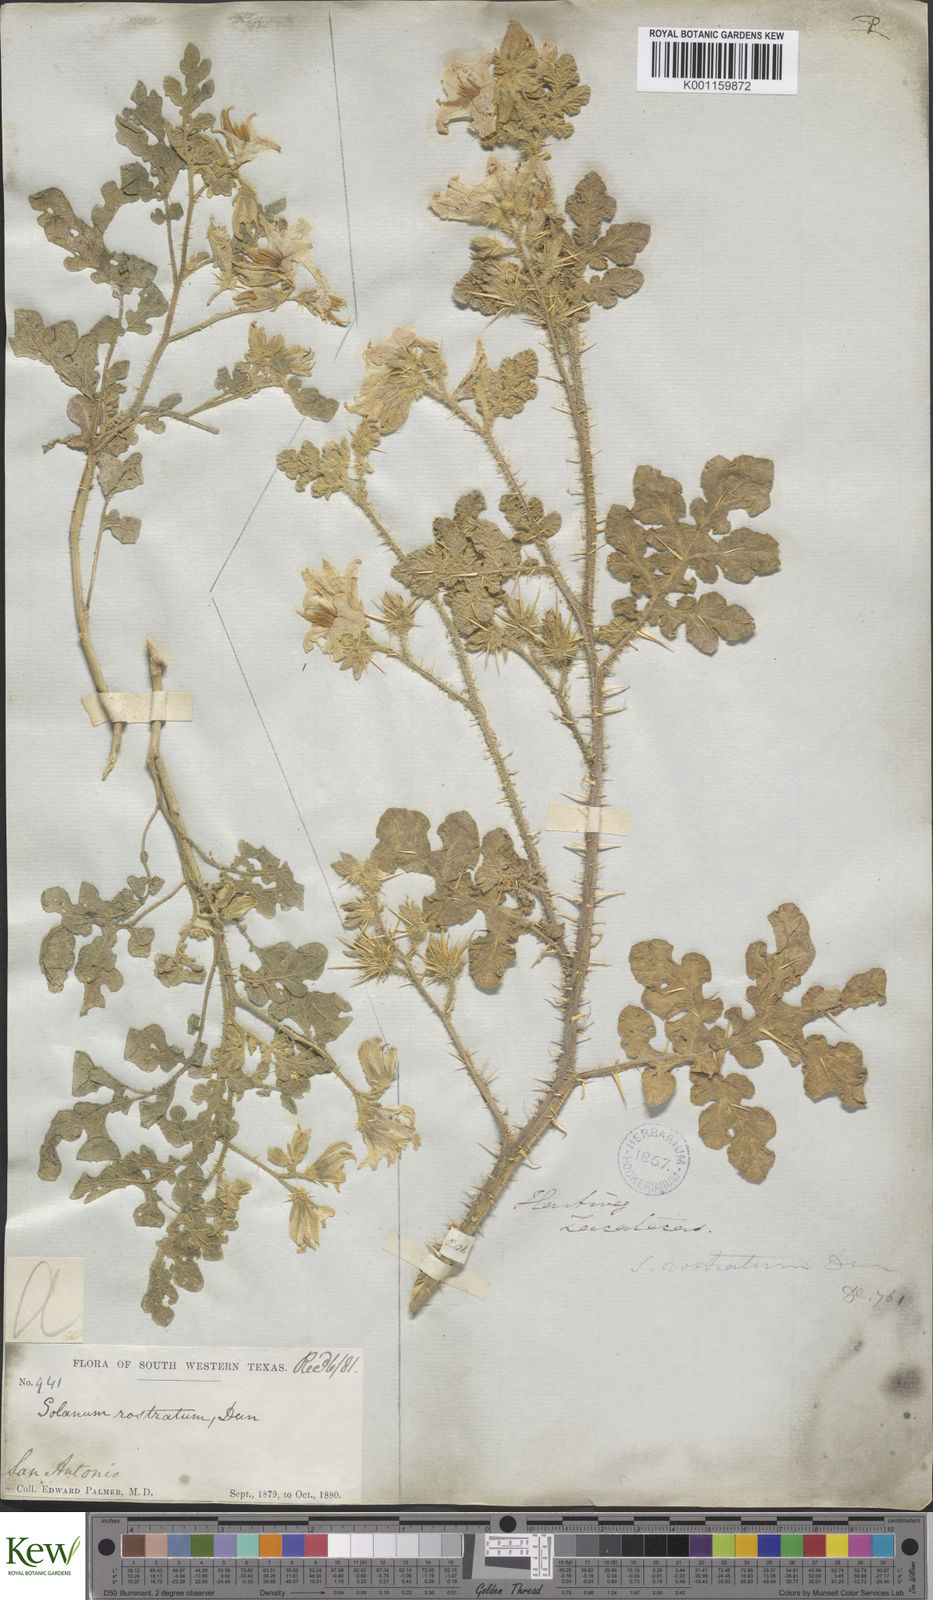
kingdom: Plantae
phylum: Tracheophyta
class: Magnoliopsida
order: Solanales
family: Solanaceae
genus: Solanum
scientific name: Solanum angustifolium
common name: Buffalobur nightshade
